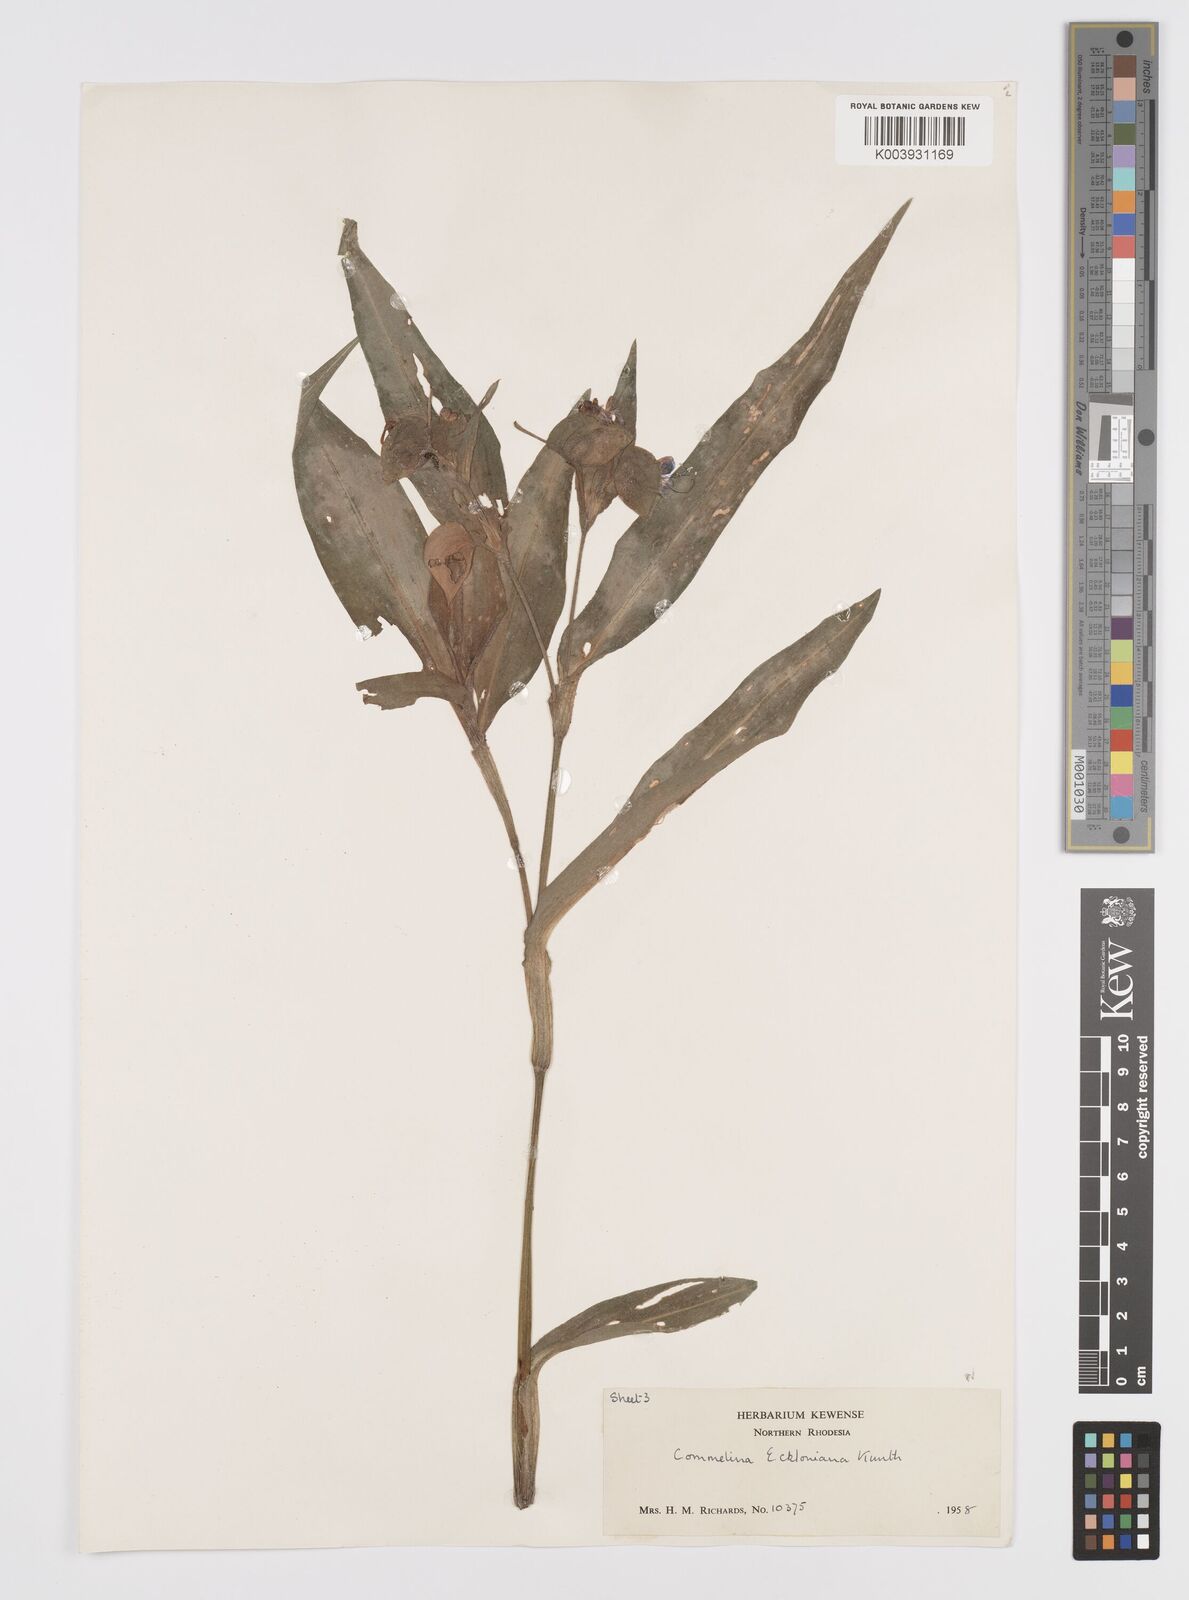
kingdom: Plantae
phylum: Tracheophyta
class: Liliopsida
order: Commelinales
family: Commelinaceae
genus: Commelina
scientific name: Commelina eckloniana
